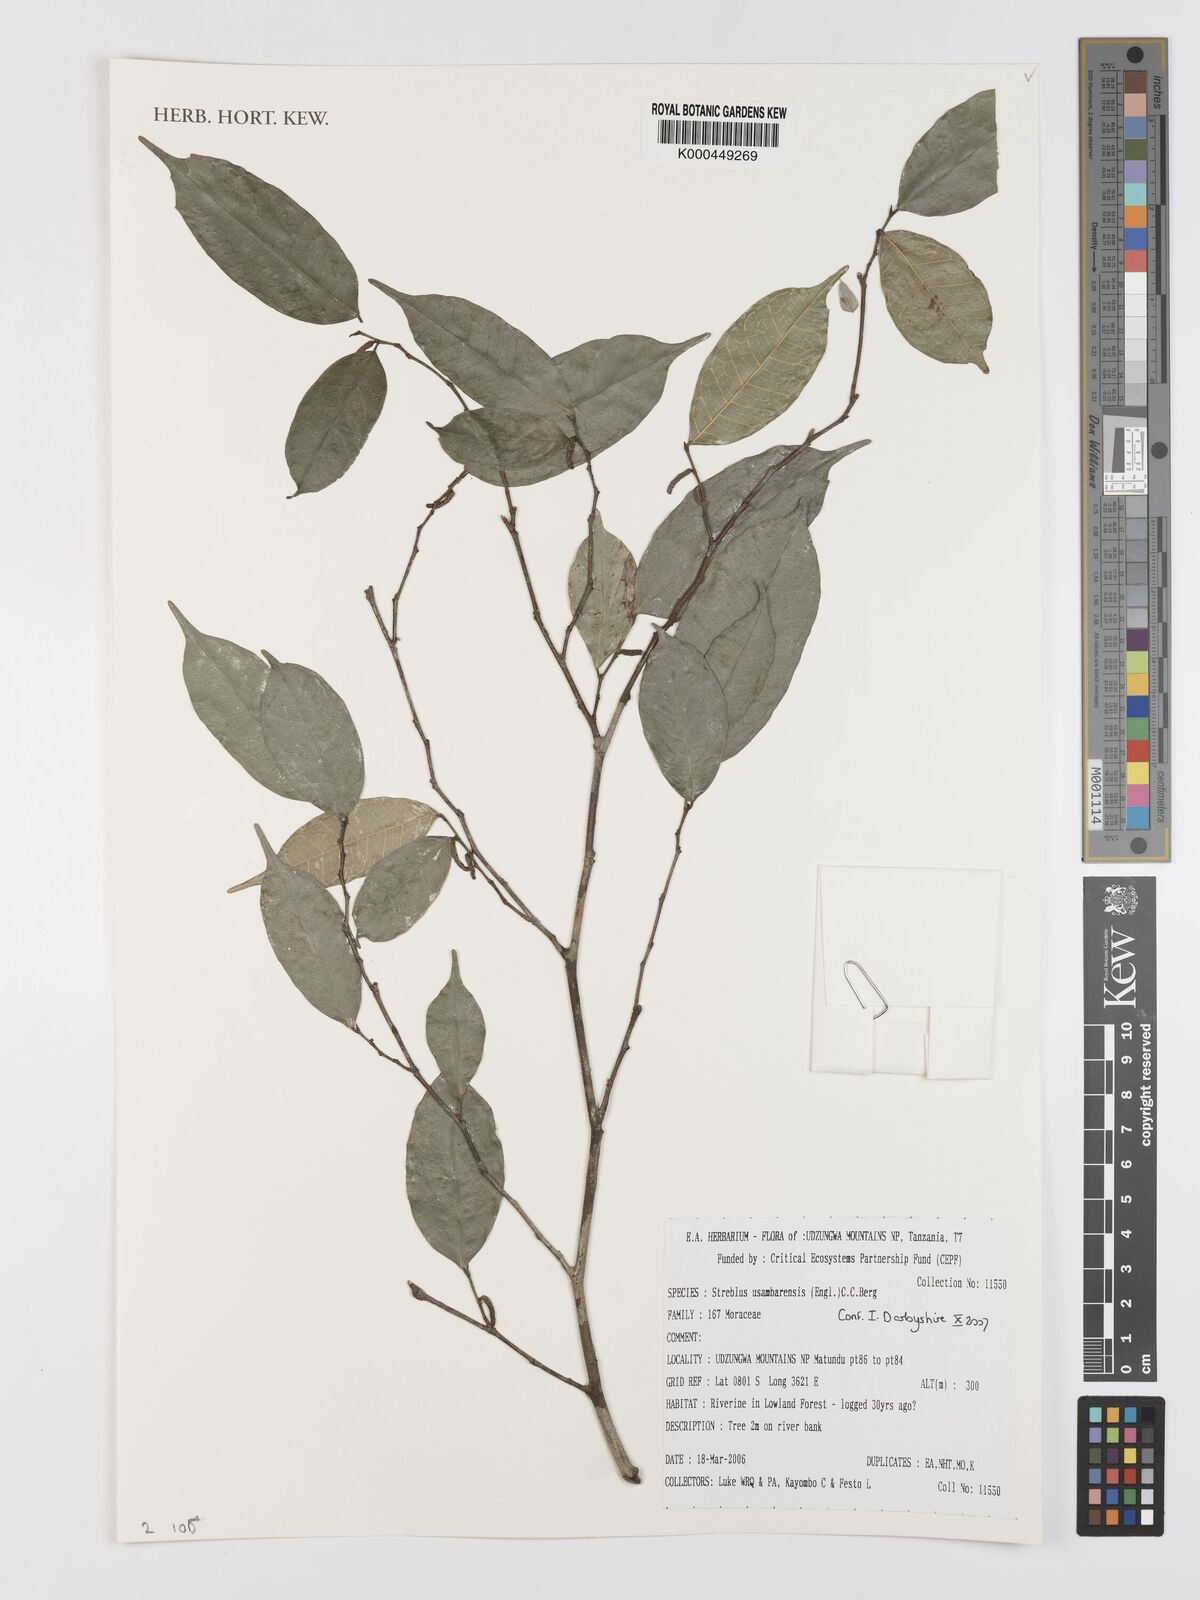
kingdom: Plantae
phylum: Tracheophyta
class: Magnoliopsida
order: Rosales
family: Moraceae
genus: Sloetiopsis
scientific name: Sloetiopsis usambarensis
